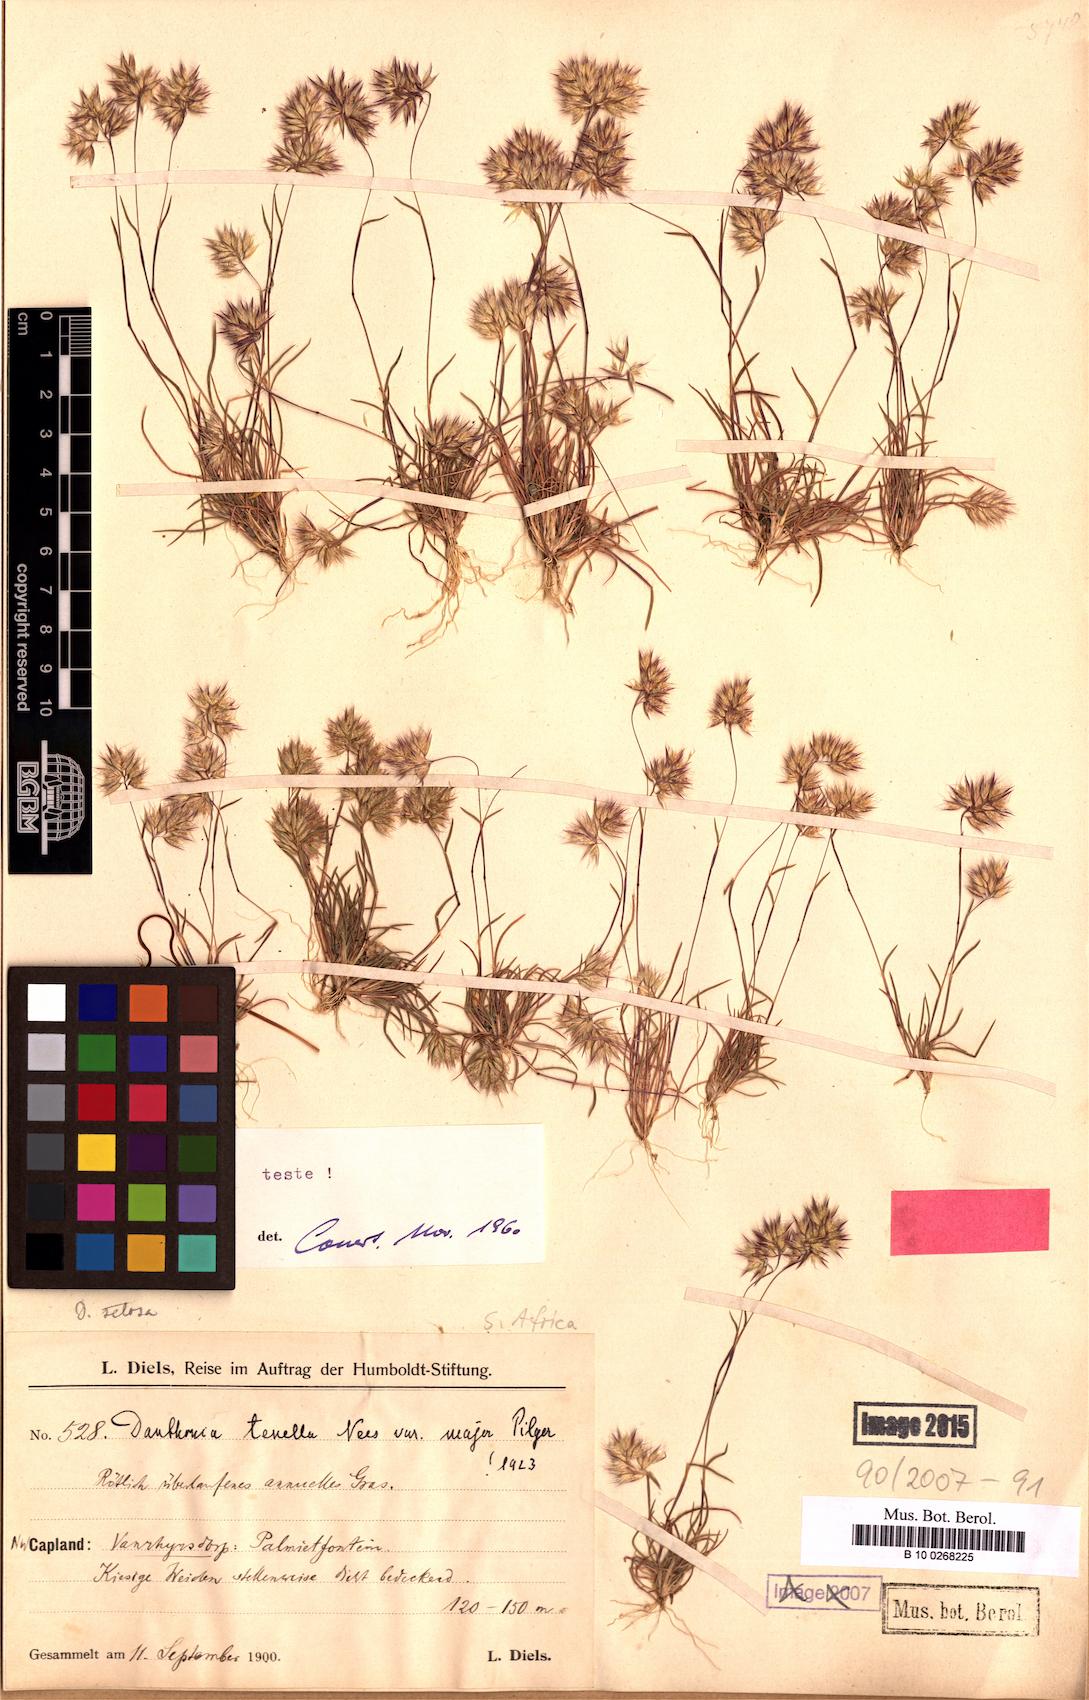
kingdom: Plantae
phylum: Tracheophyta
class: Liliopsida
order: Poales
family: Poaceae
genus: Tribolium
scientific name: Tribolium tenellum
